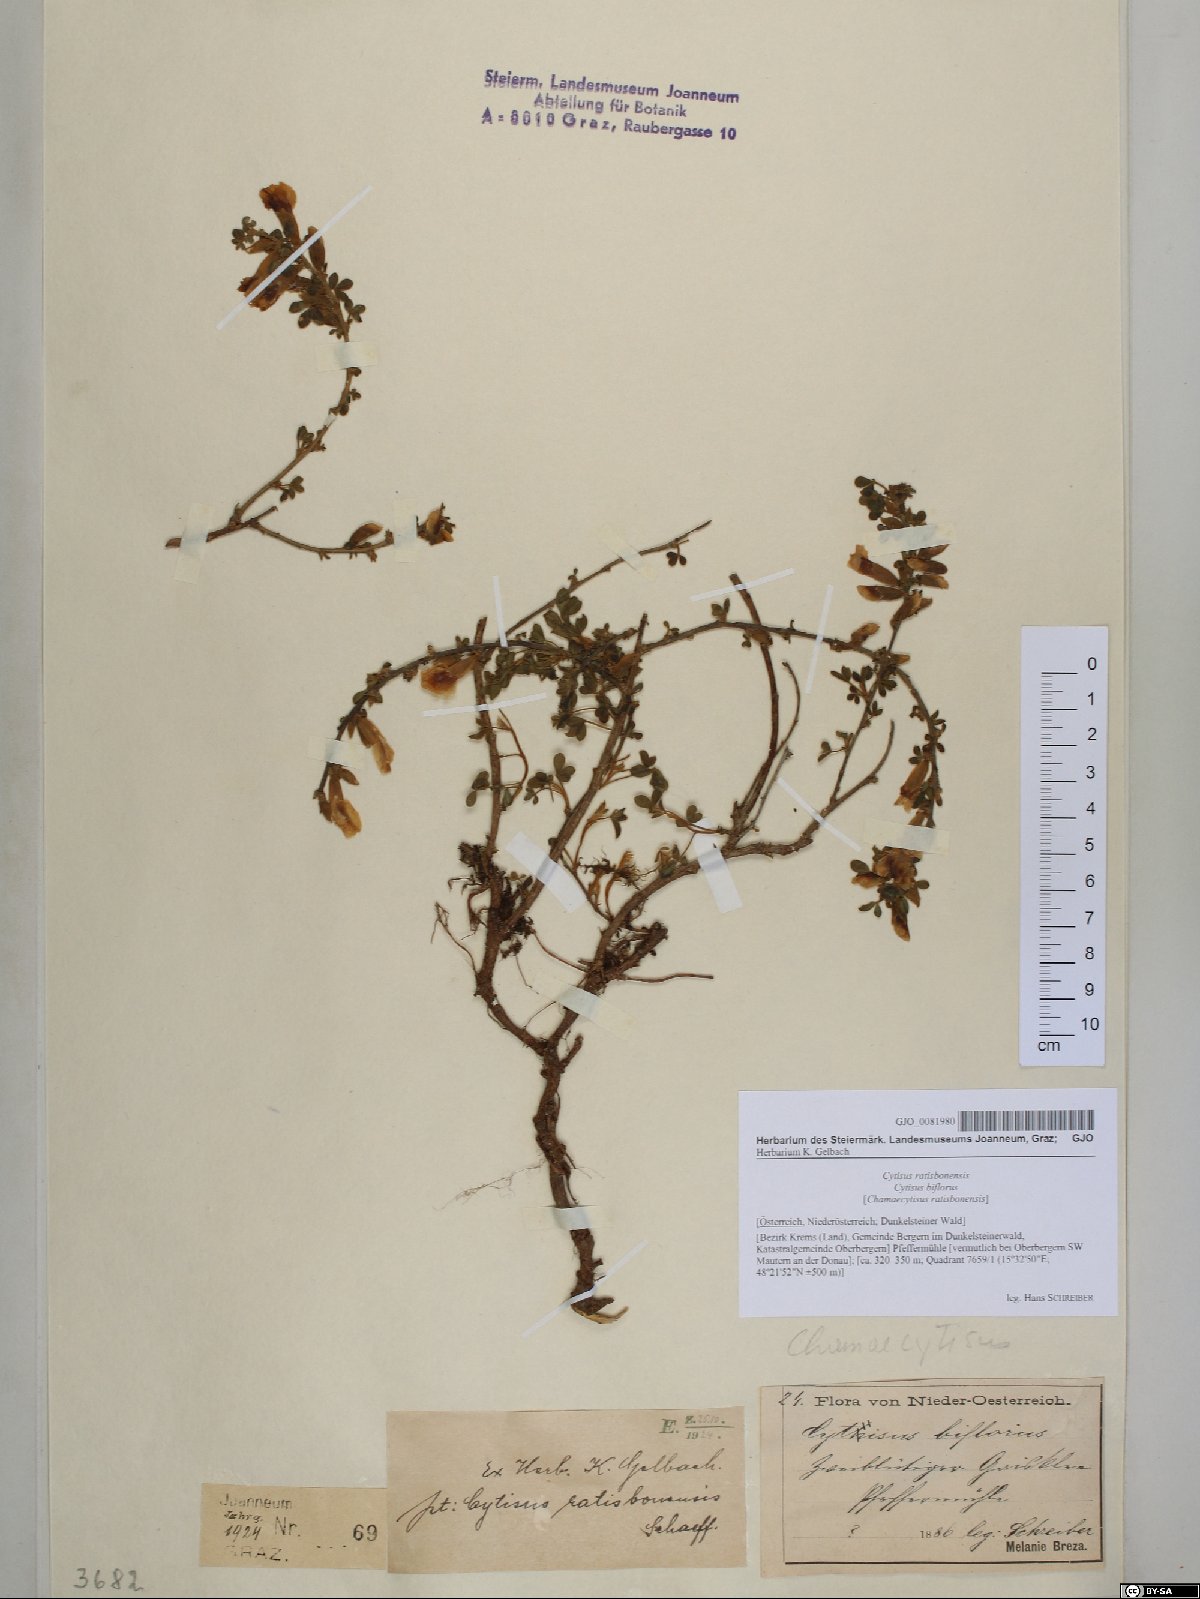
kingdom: Plantae
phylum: Tracheophyta
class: Magnoliopsida
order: Fabales
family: Fabaceae
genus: Chamaecytisus
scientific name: Chamaecytisus ratisbonensis
